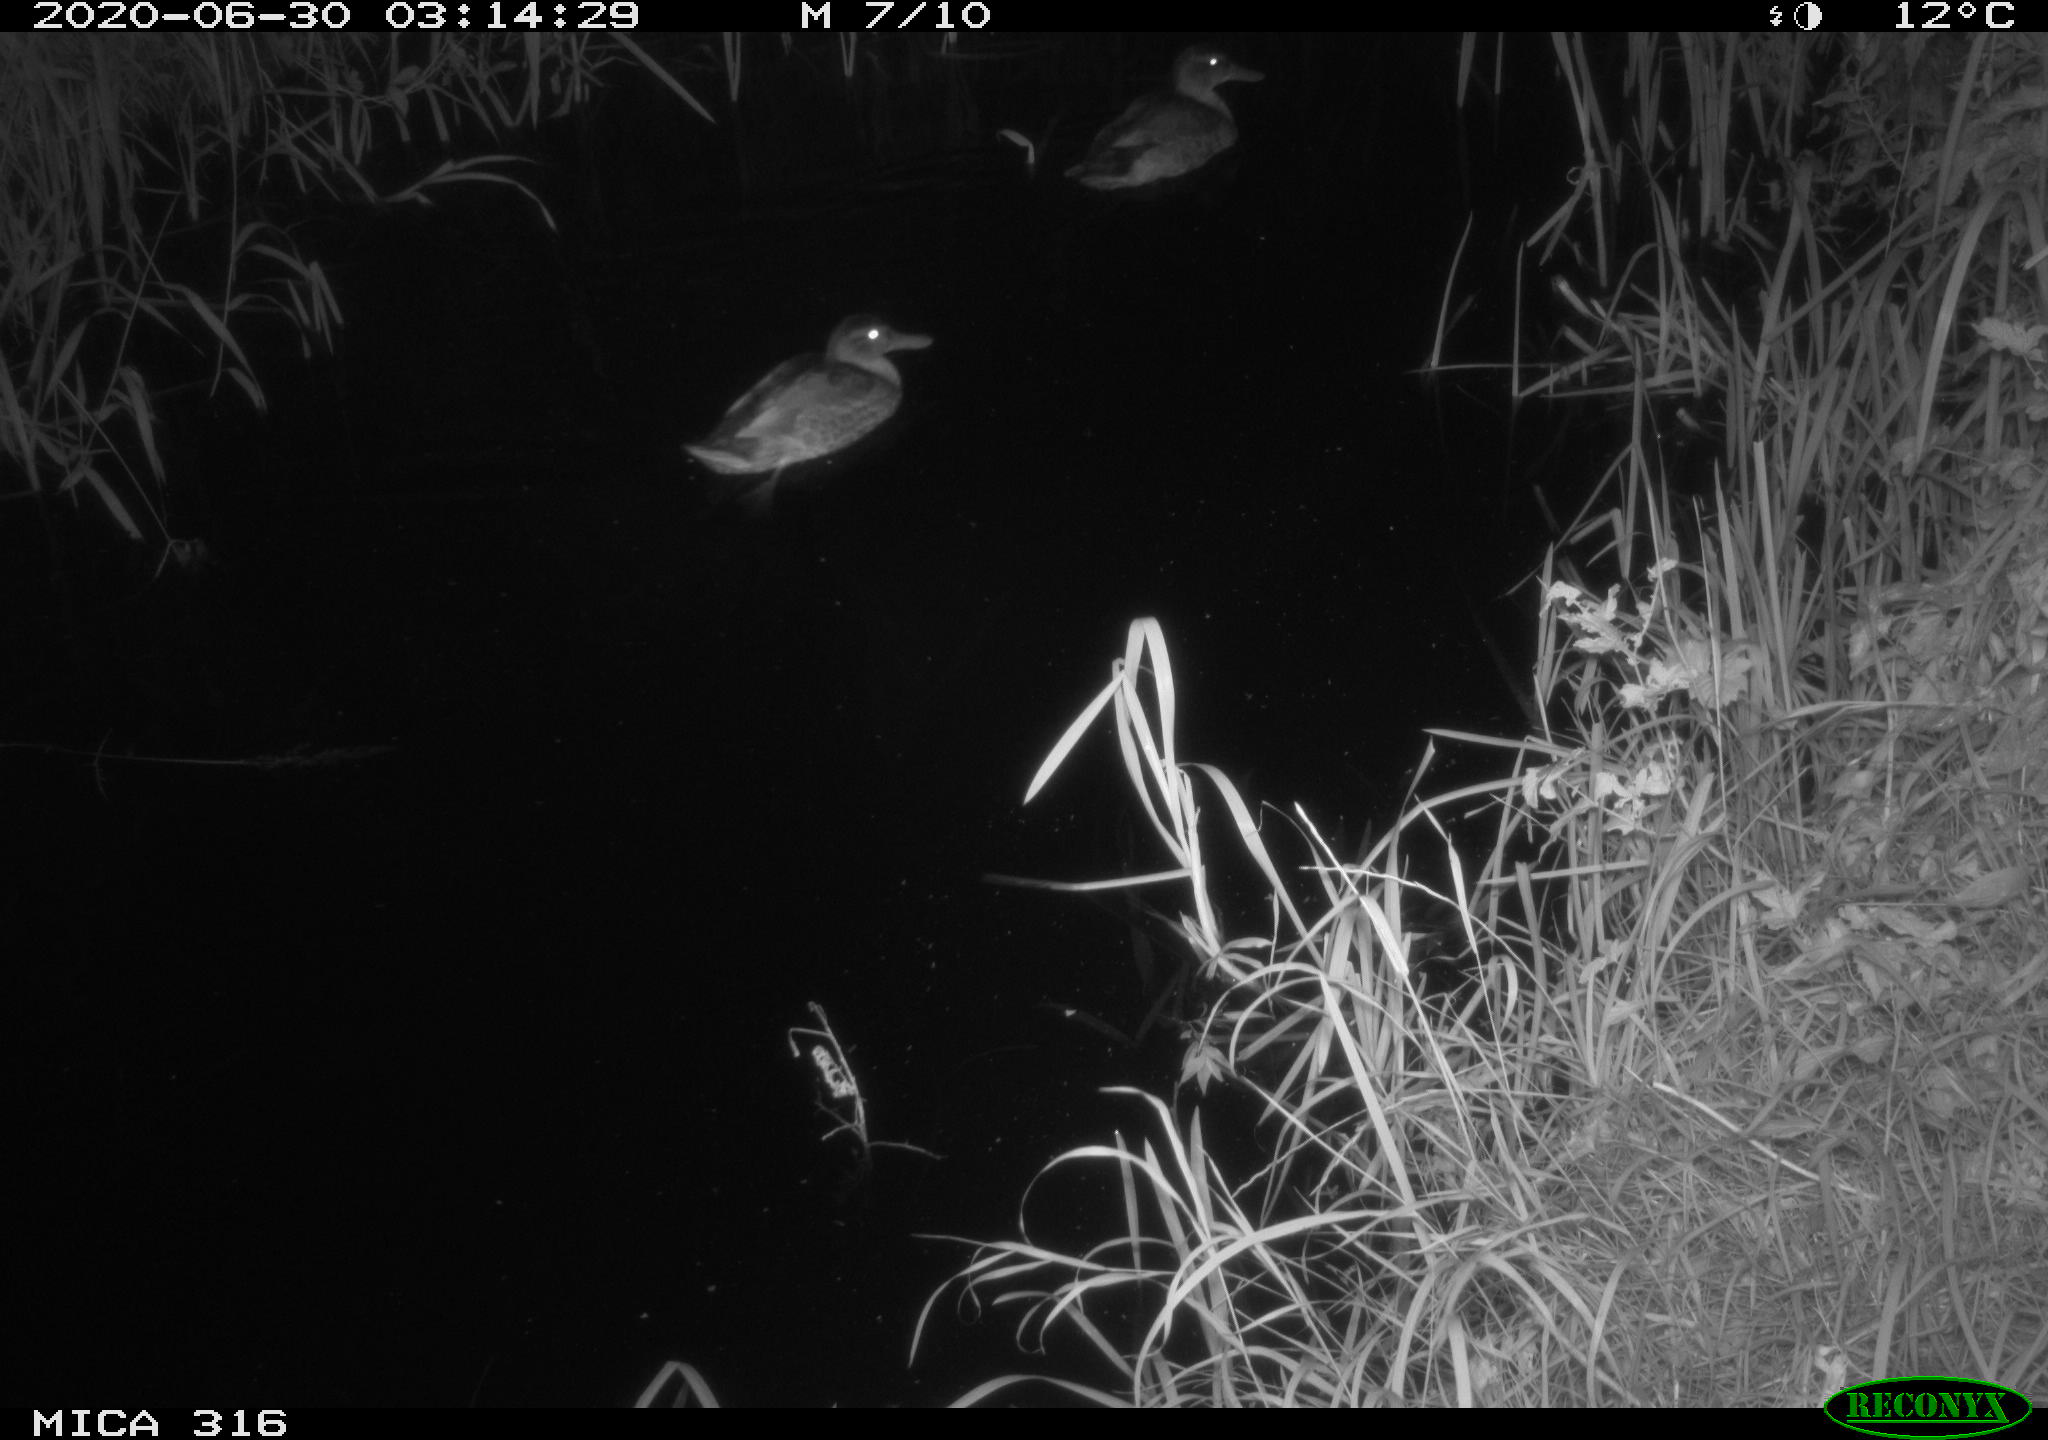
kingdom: Animalia
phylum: Chordata
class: Aves
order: Anseriformes
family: Anatidae
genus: Anas
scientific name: Anas platyrhynchos
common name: Mallard
